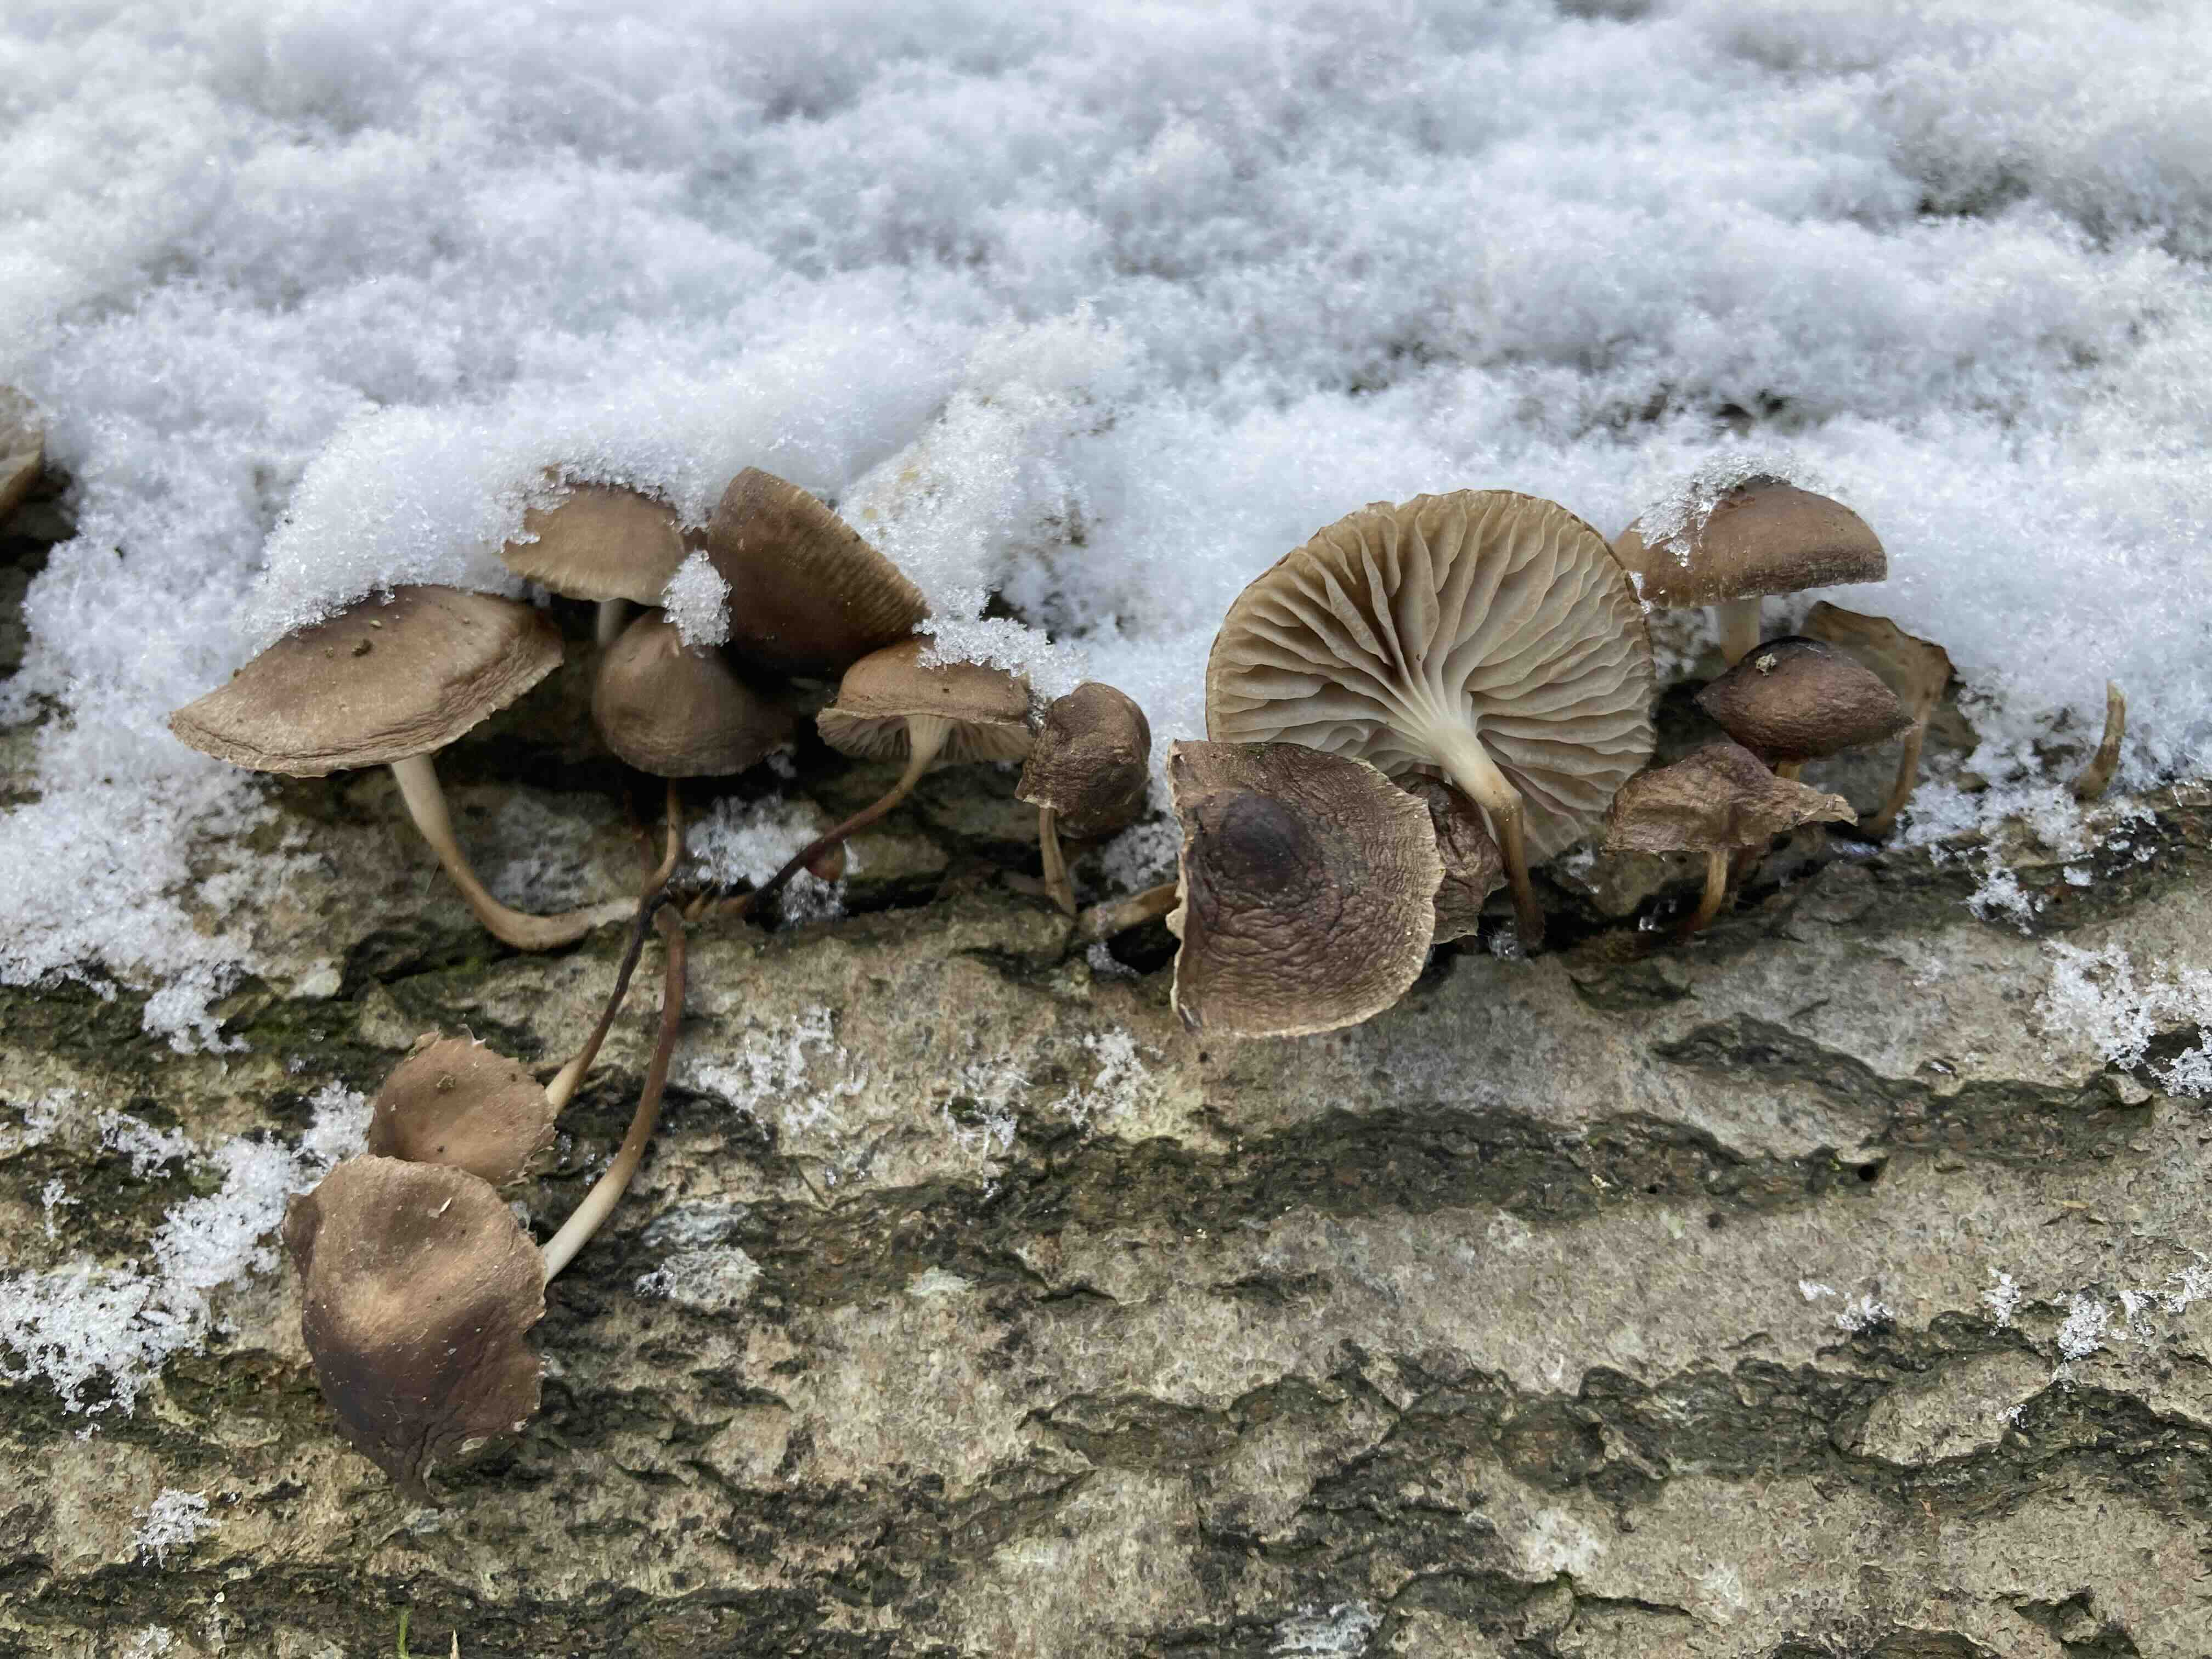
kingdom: Fungi
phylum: Basidiomycota
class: Agaricomycetes
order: Agaricales
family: Mycenaceae
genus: Mycena
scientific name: Mycena tintinnabulum
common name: vinter-huesvamp
